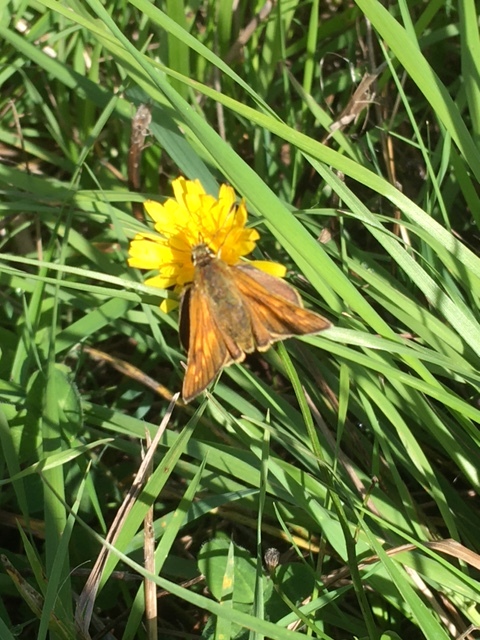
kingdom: Animalia
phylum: Arthropoda
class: Insecta
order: Lepidoptera
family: Hesperiidae
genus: Ochlodes
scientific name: Ochlodes venata
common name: Large skipper
